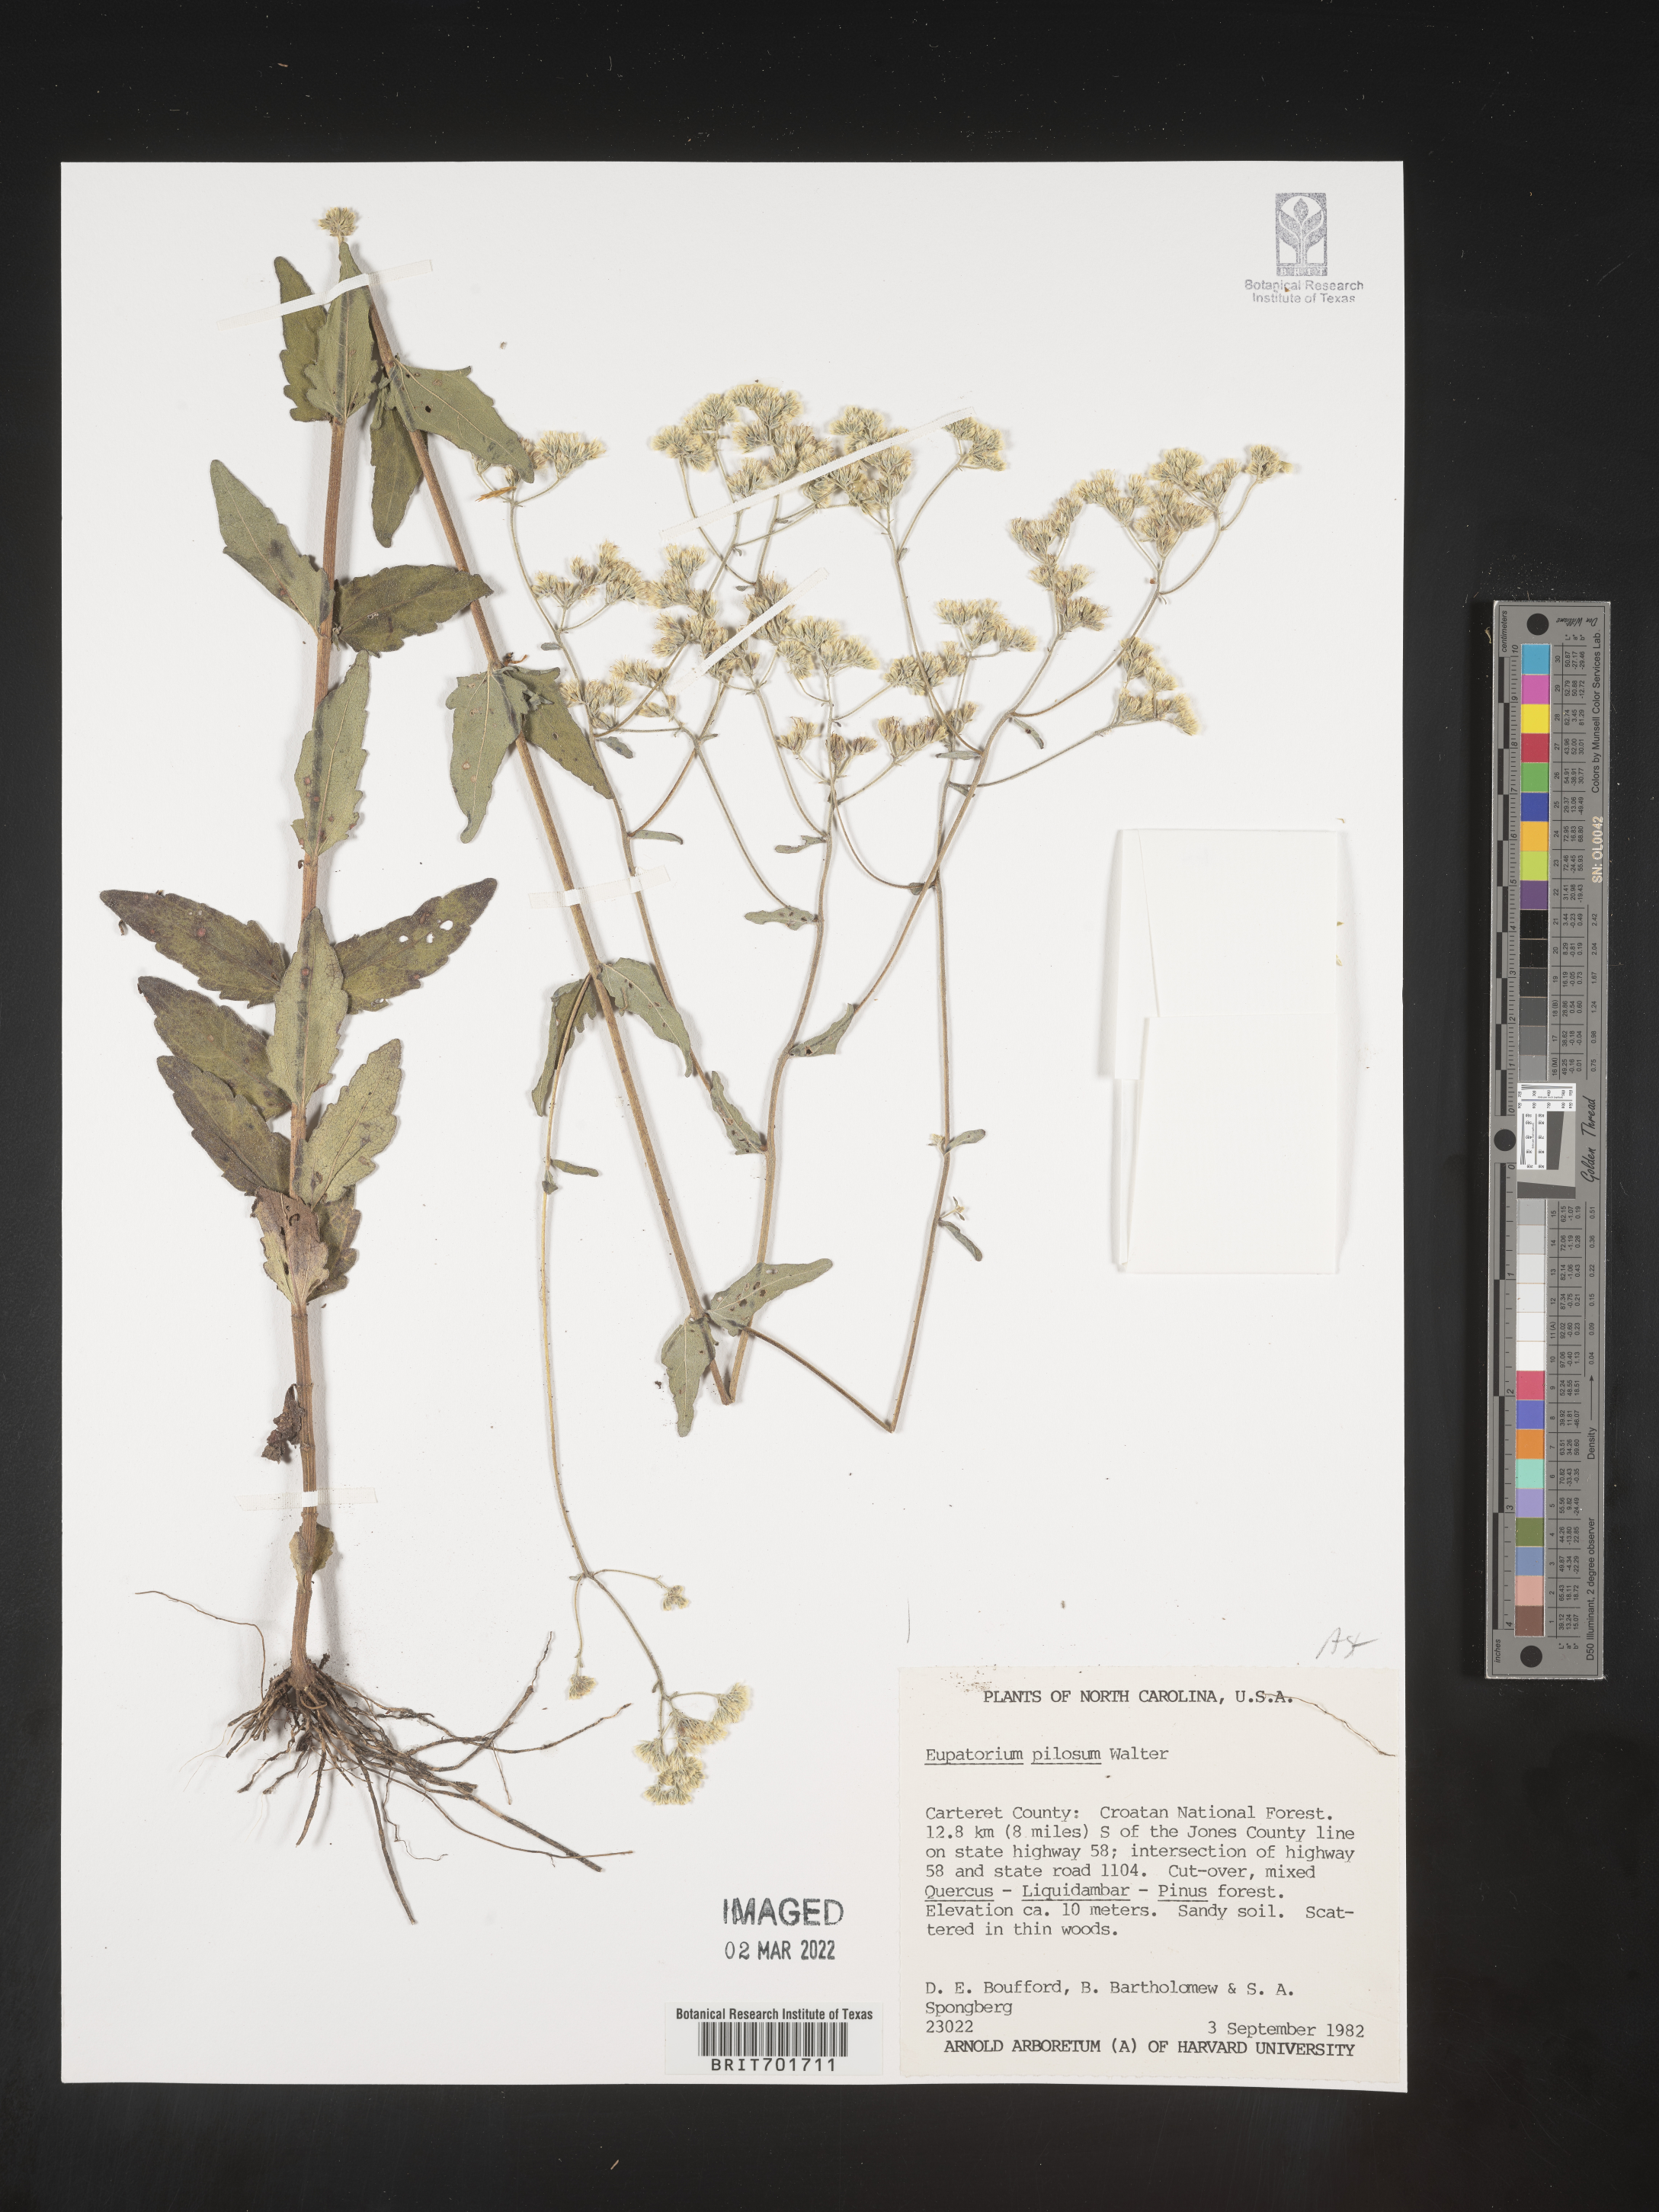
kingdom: Plantae
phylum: Tracheophyta
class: Magnoliopsida
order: Asterales
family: Asteraceae
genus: Eupatorium
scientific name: Eupatorium pilosum
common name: Rough boneset
